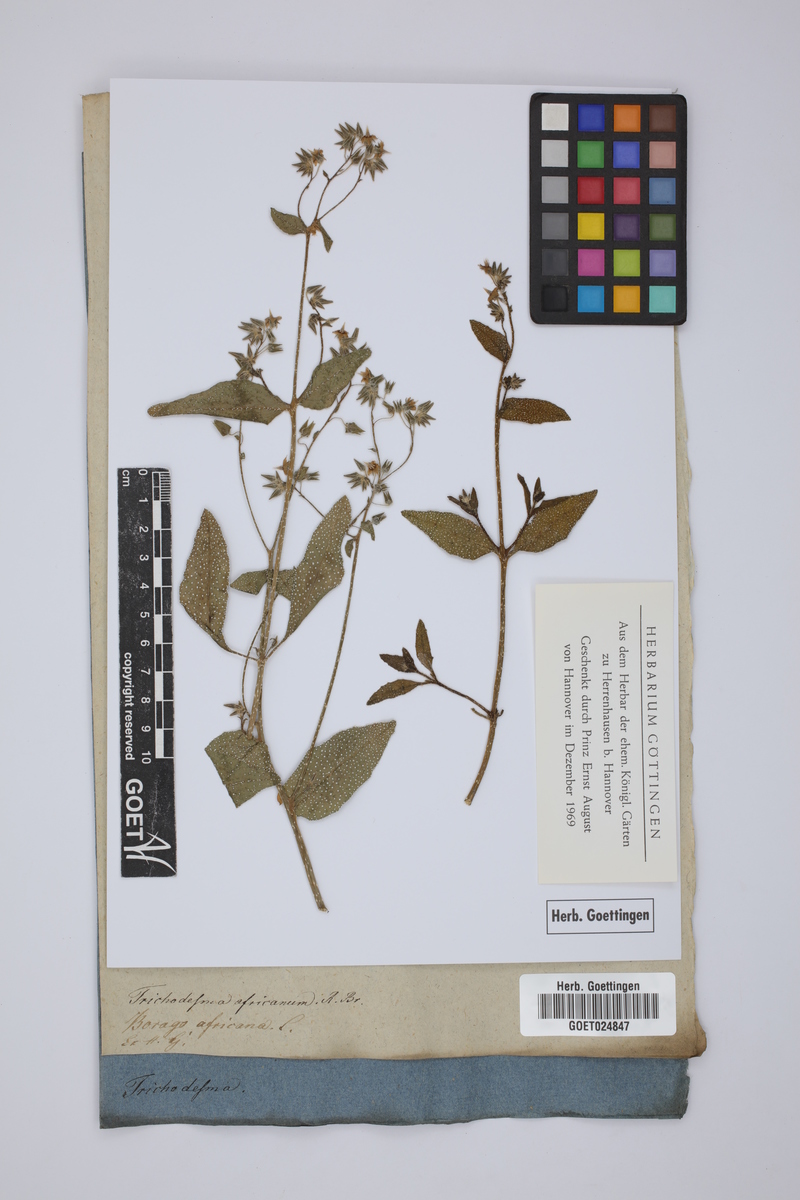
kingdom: Plantae
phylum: Tracheophyta
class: Magnoliopsida
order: Boraginales
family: Boraginaceae
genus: Trichodesma
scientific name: Trichodesma africanum
